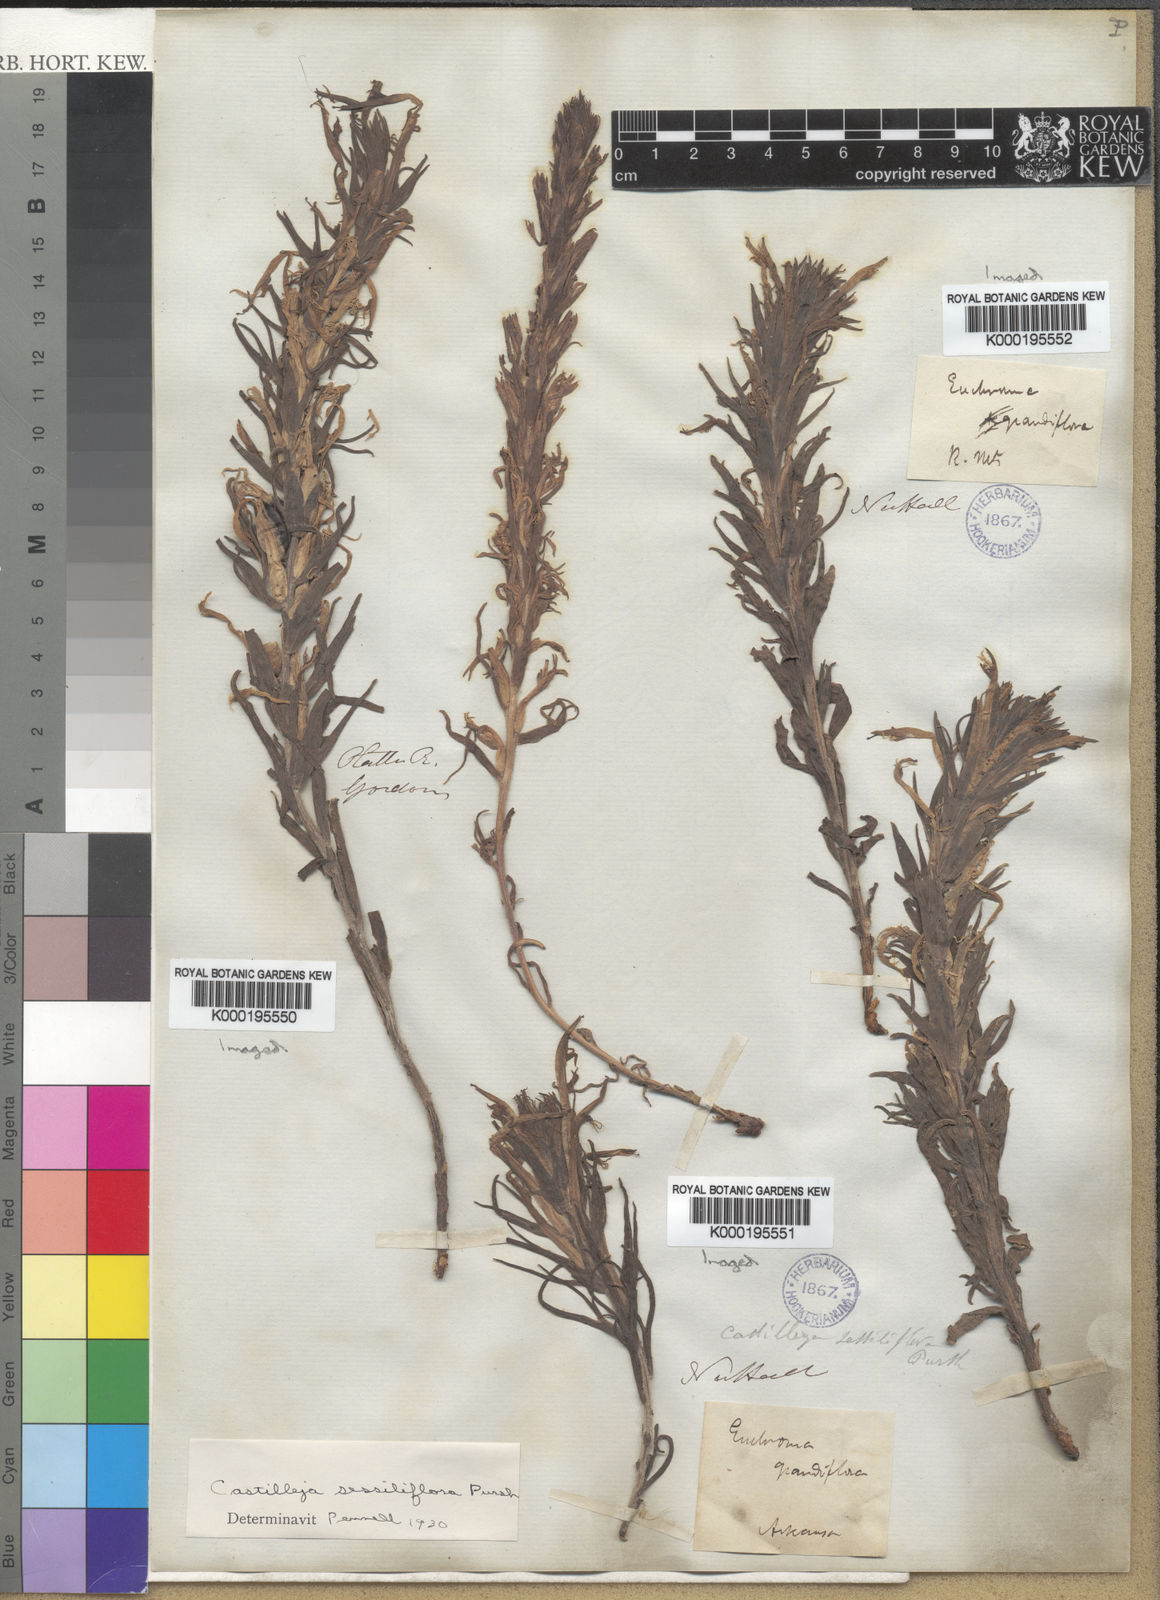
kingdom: Plantae
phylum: Tracheophyta
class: Magnoliopsida
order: Lamiales
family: Orobanchaceae
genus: Castilleja
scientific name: Castilleja sessiliflora
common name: Downy paintbrush
